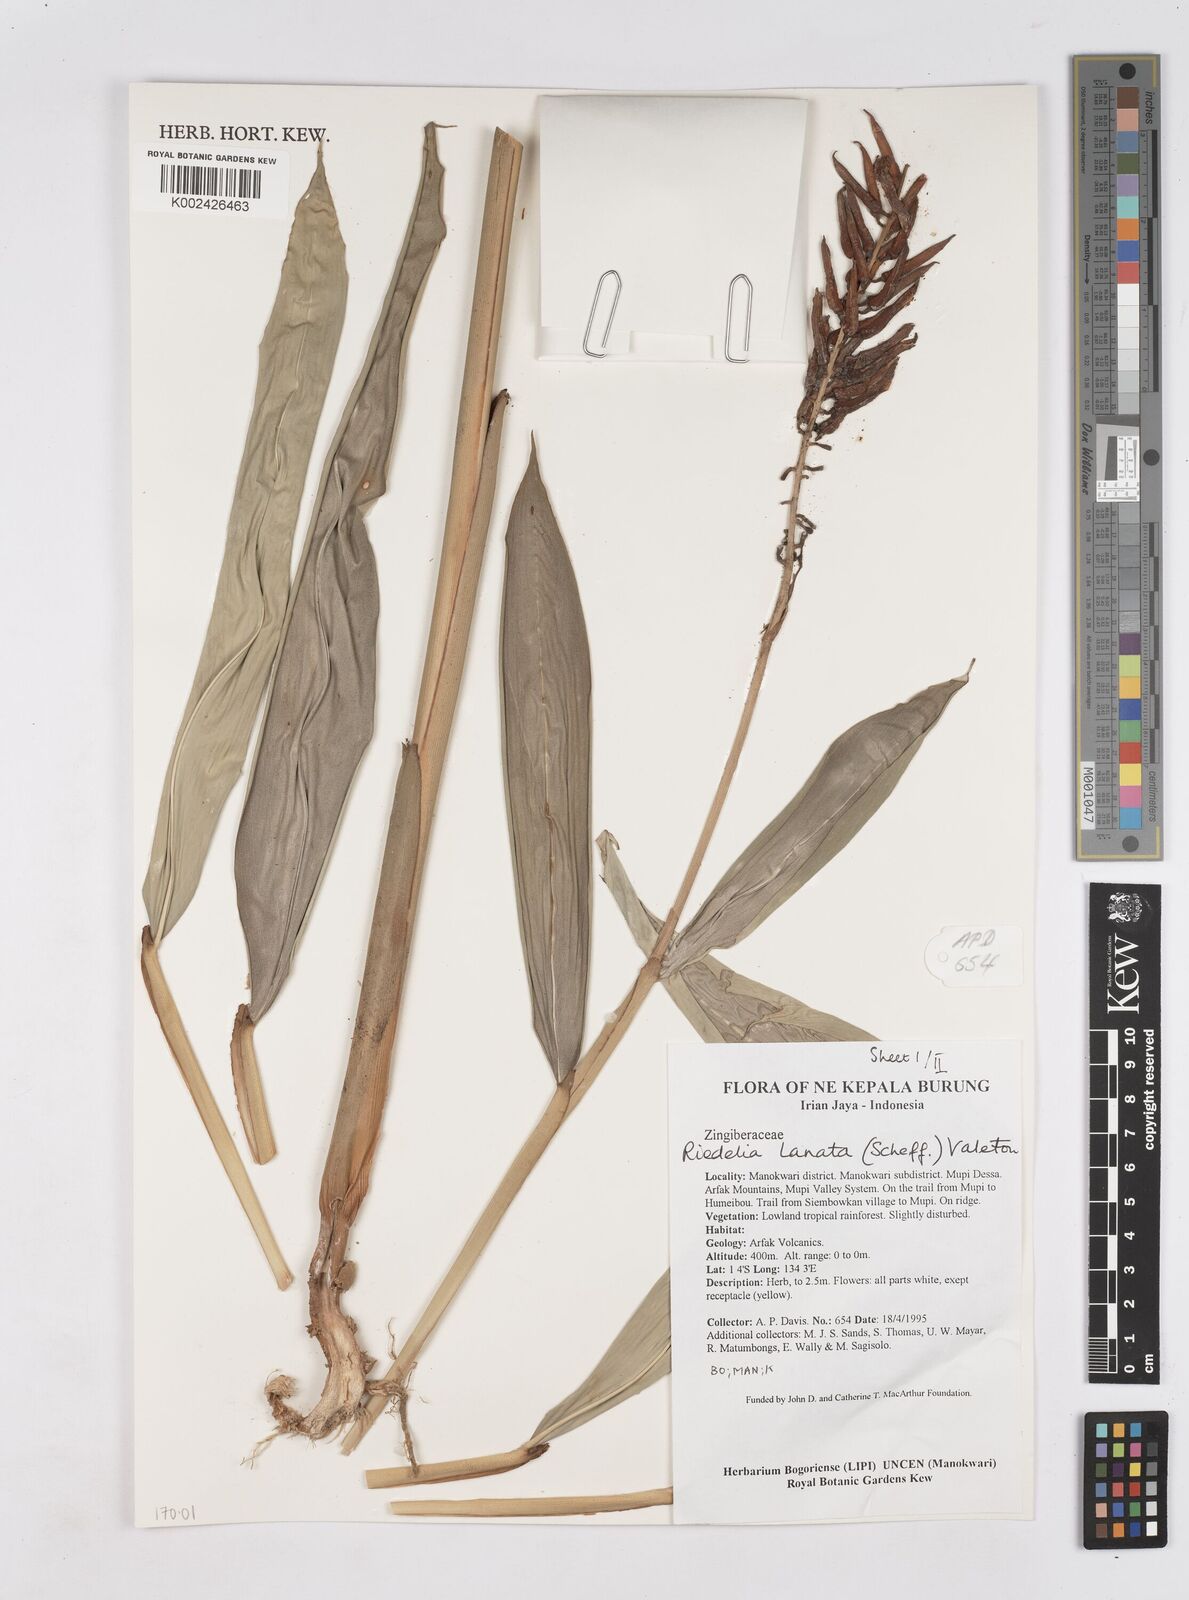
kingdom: Plantae
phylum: Tracheophyta
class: Liliopsida
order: Zingiberales
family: Zingiberaceae
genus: Riedelia
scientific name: Riedelia lanata
